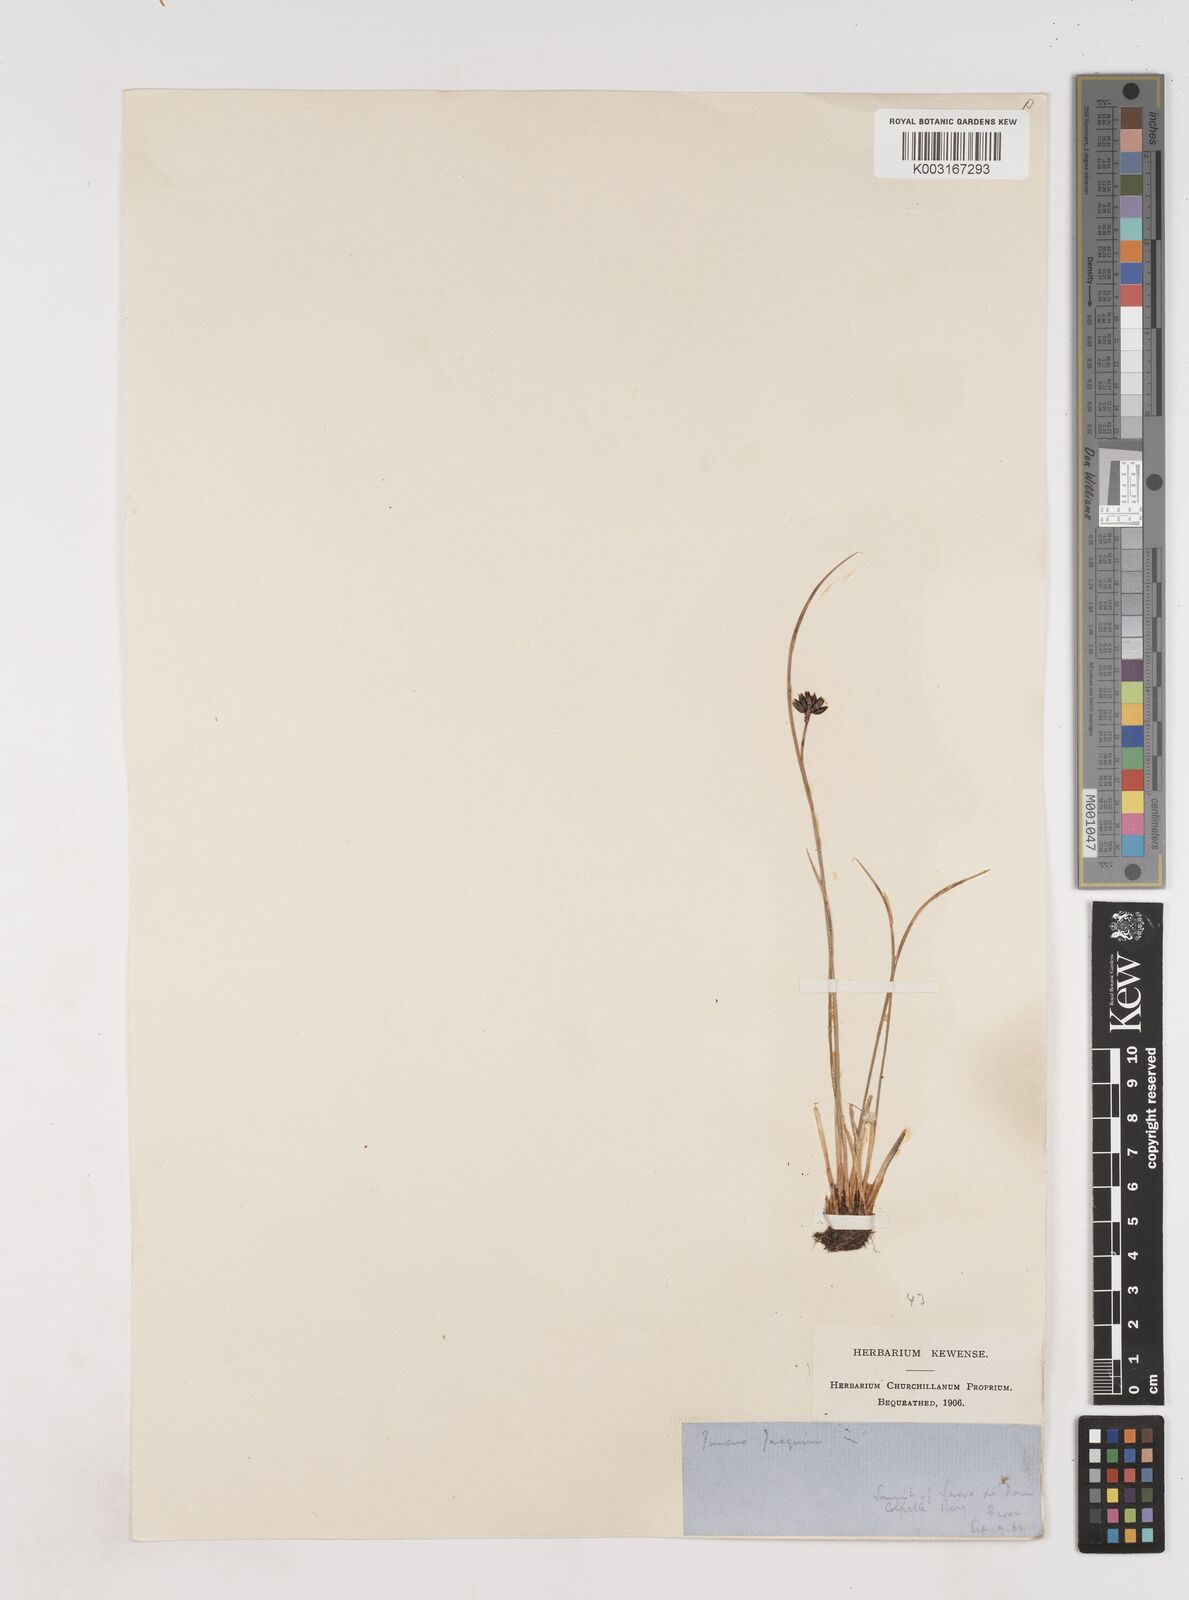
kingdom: Plantae
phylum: Tracheophyta
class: Liliopsida
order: Poales
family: Juncaceae
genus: Juncus
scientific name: Juncus jacquinii
